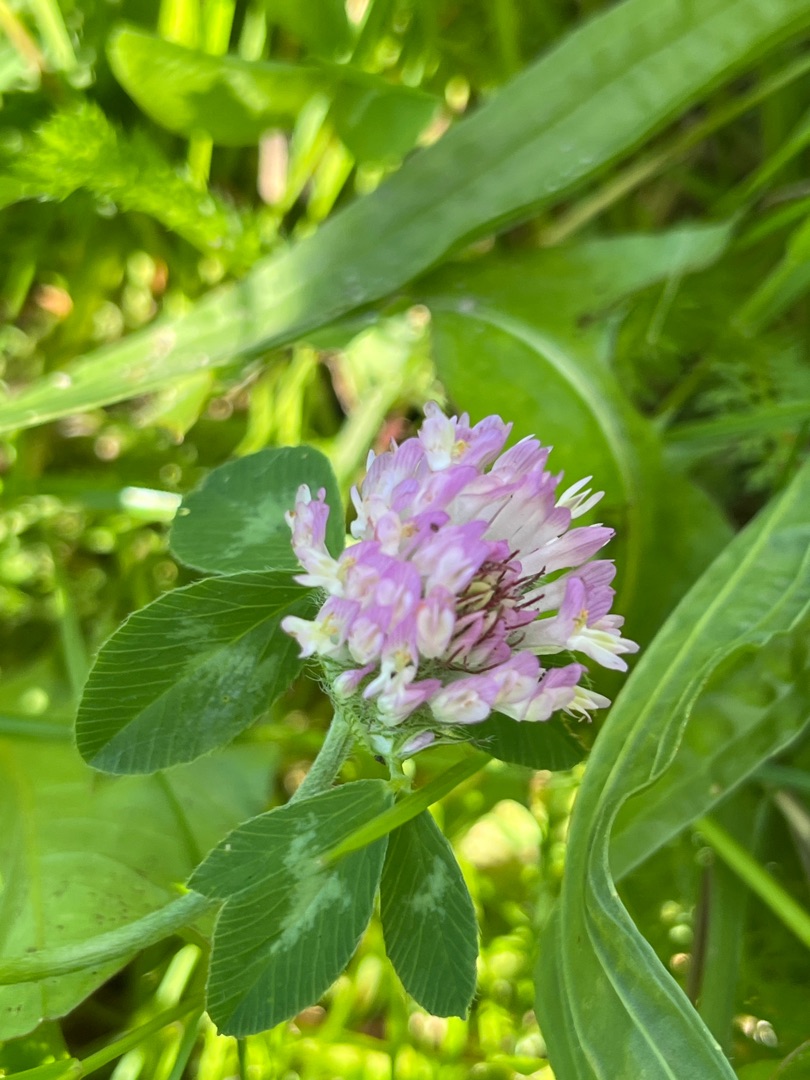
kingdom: Plantae
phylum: Tracheophyta
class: Magnoliopsida
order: Fabales
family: Fabaceae
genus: Trifolium
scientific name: Trifolium pratense
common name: Rød-kløver
